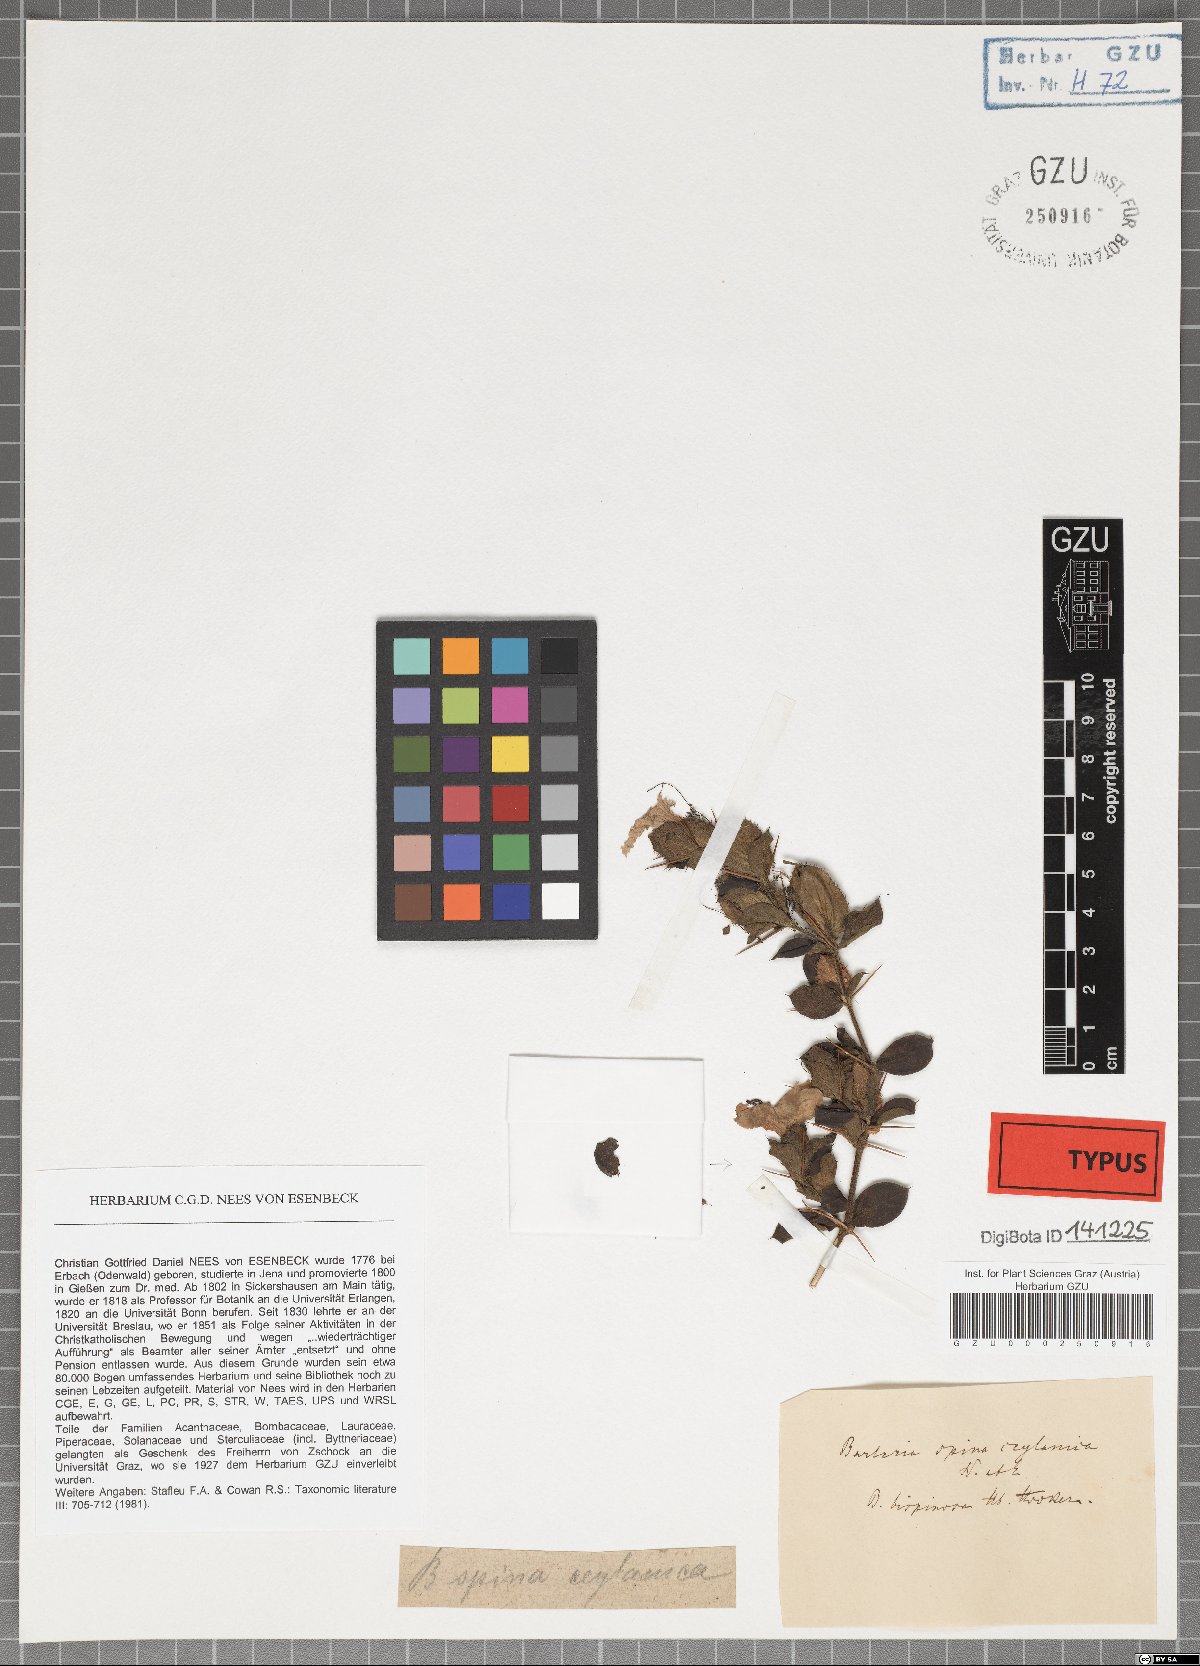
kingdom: Plantae
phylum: Tracheophyta
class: Magnoliopsida
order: Lamiales
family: Acanthaceae
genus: Barleria
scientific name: Barleria mysorensis
